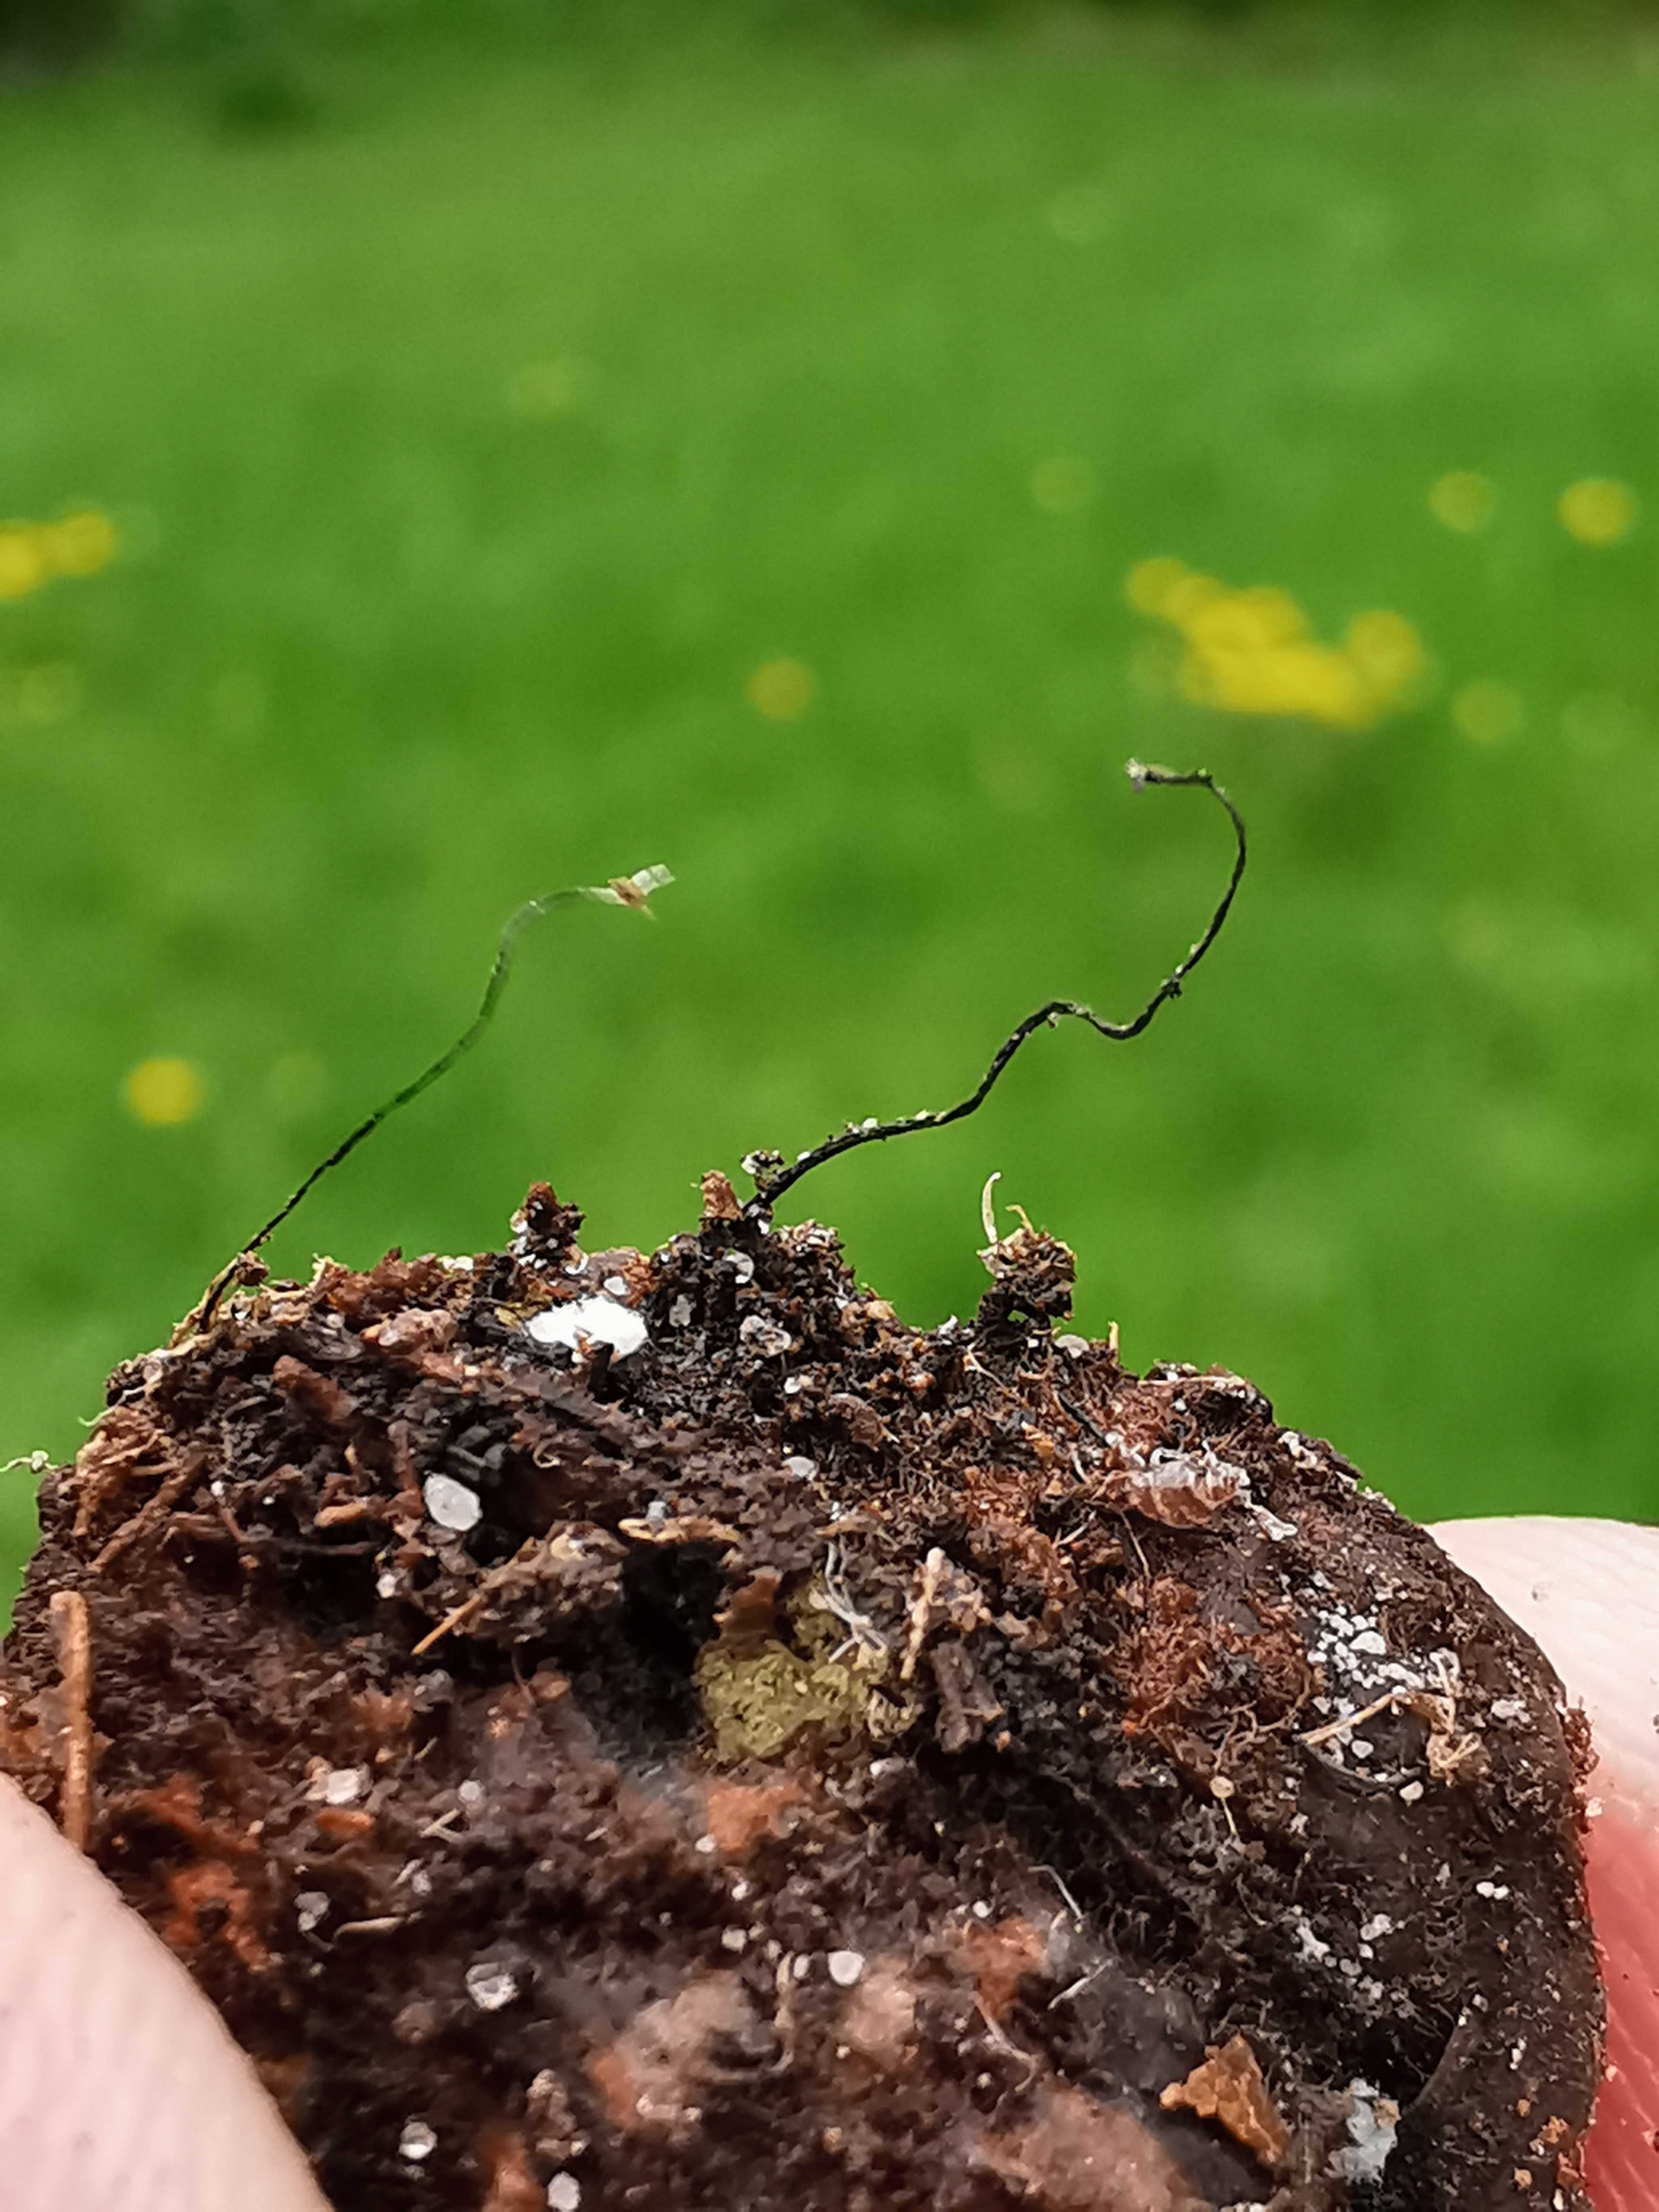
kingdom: Fungi
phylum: Ascomycota
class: Sordariomycetes
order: Xylariales
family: Xylariaceae
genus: Xylaria
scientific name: Xylaria carpophila
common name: bogskål-stødsvamp
